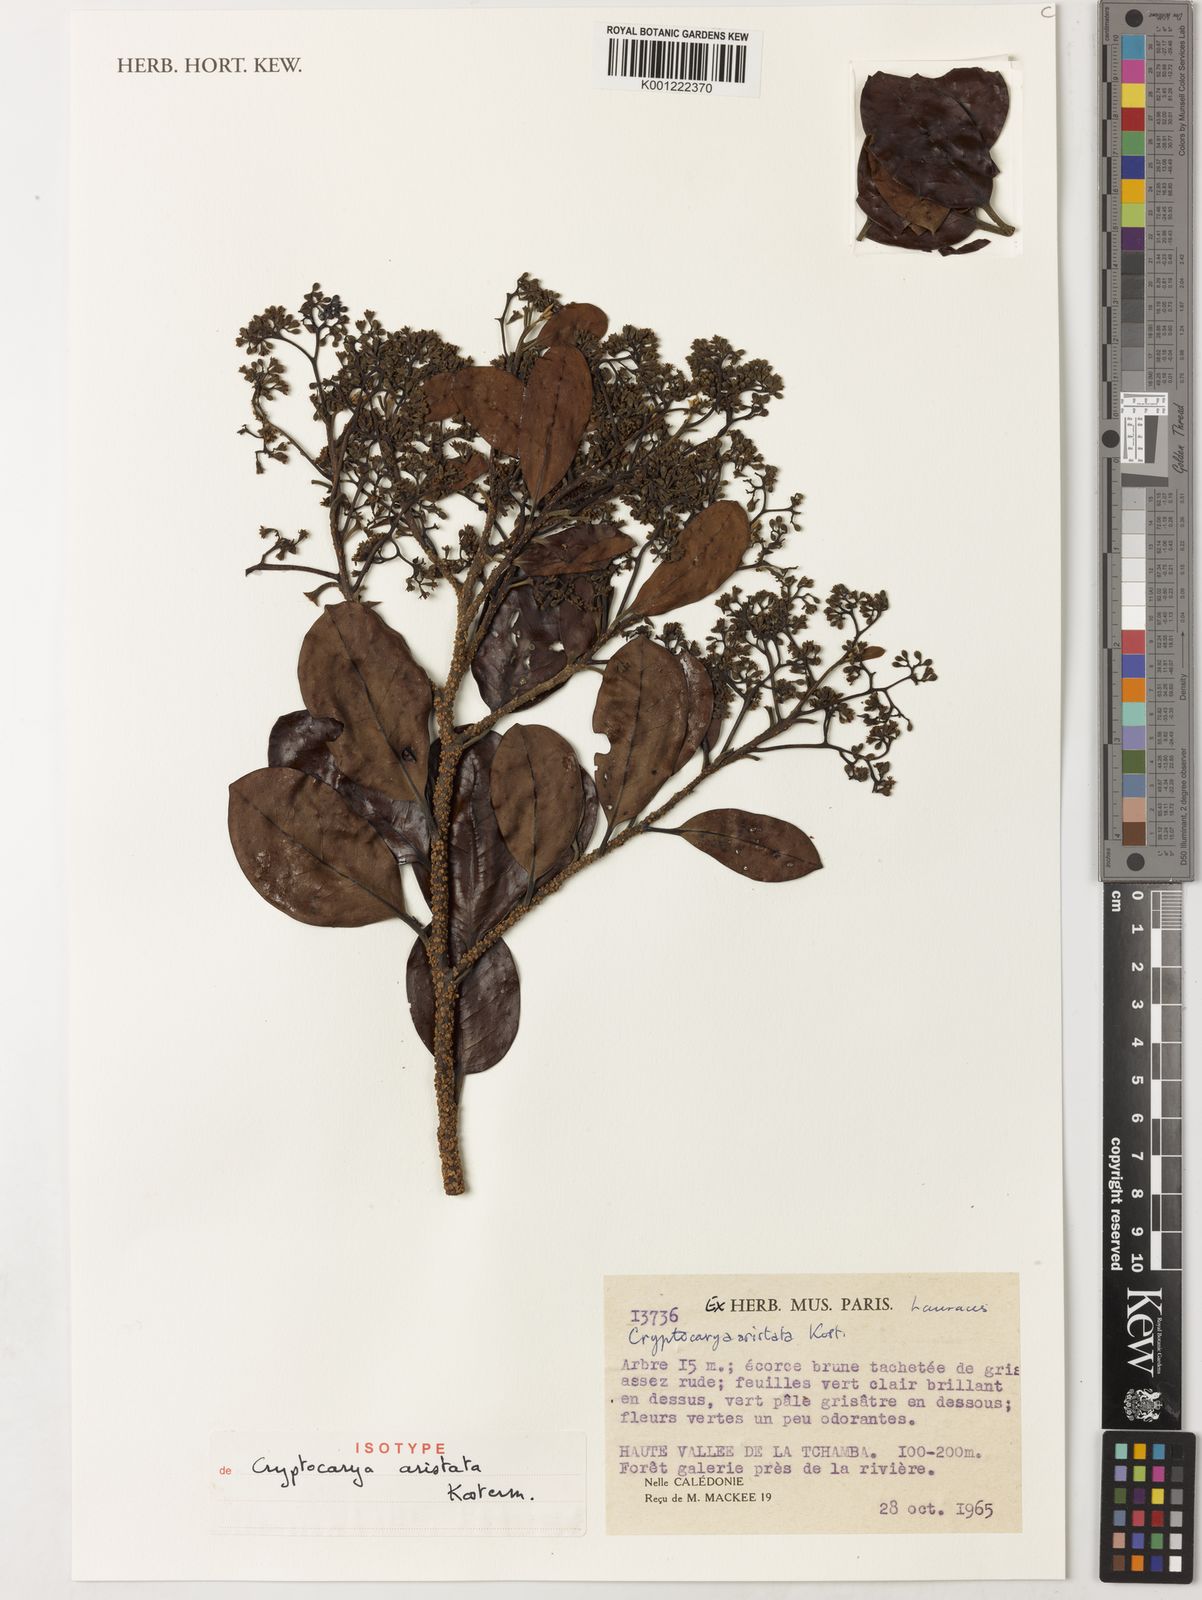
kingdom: Plantae
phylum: Tracheophyta
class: Magnoliopsida
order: Laurales
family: Lauraceae
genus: Cryptocarya
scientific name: Cryptocarya aristata
